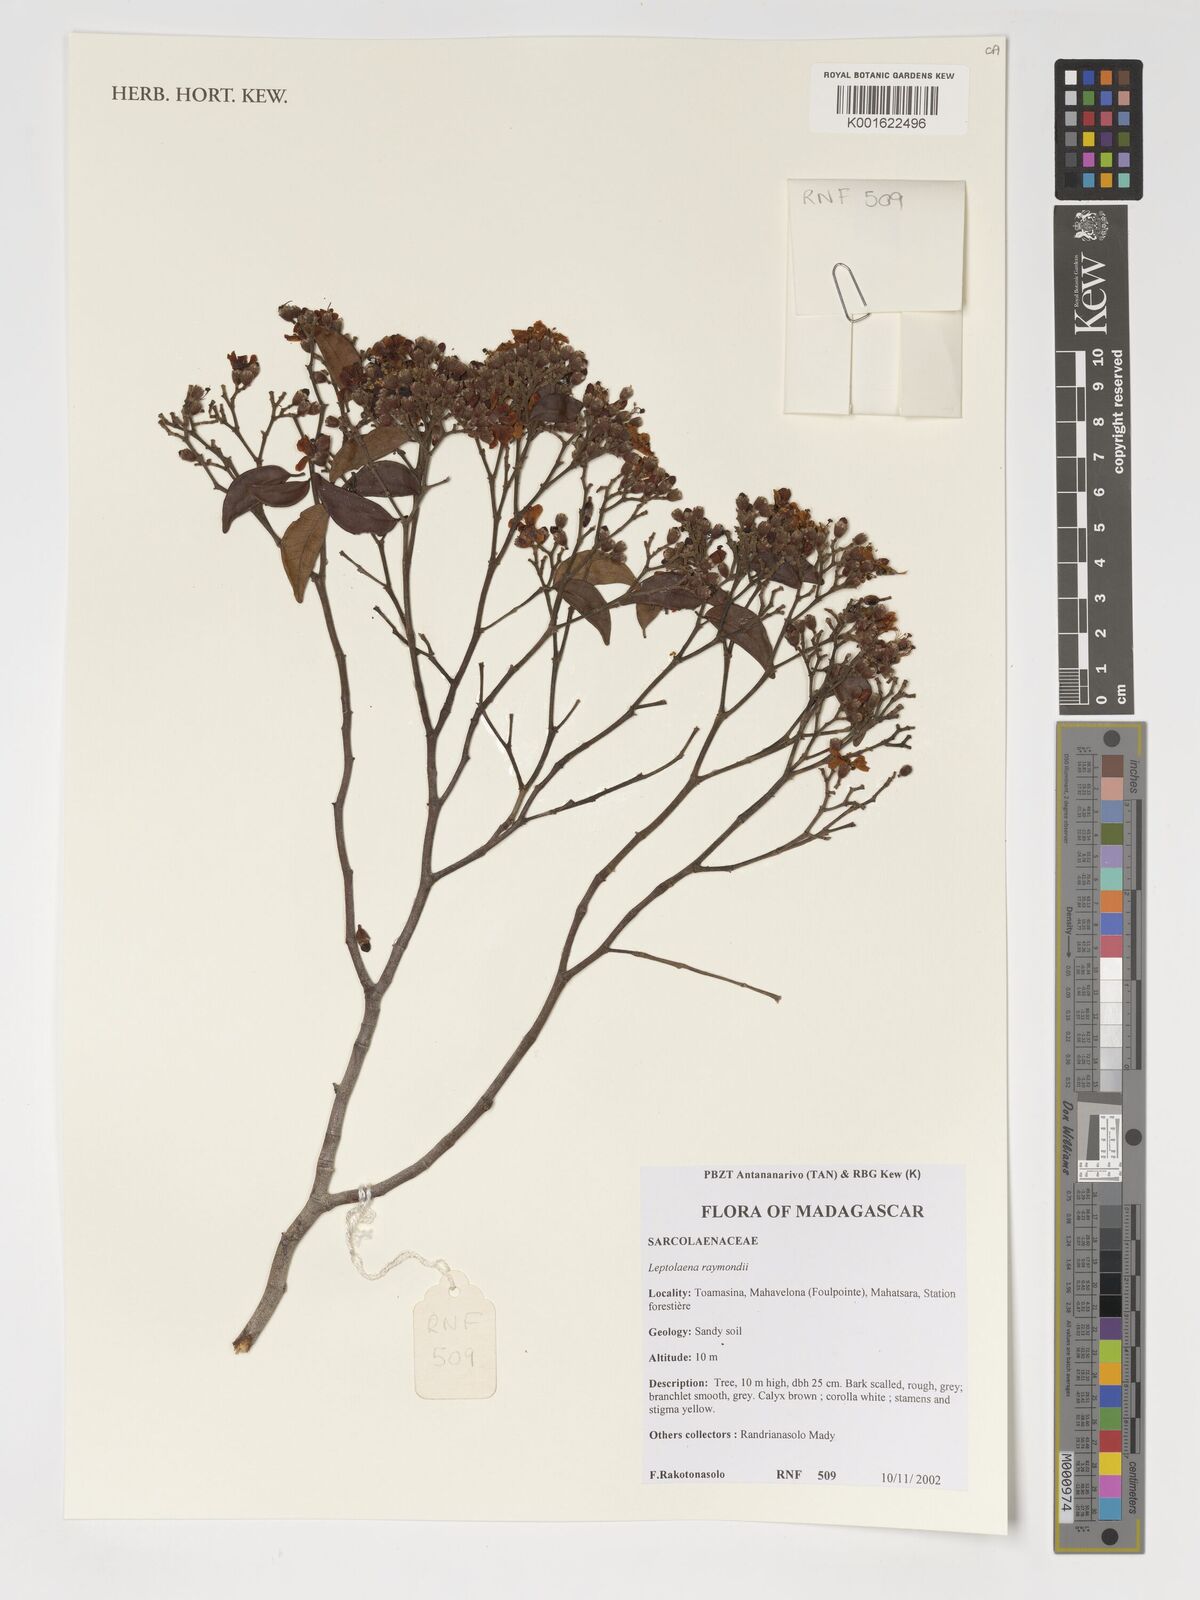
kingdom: Plantae
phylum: Tracheophyta
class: Magnoliopsida
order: Malvales
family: Sarcolaenaceae
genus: Leptolaena
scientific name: Leptolaena raymondii
